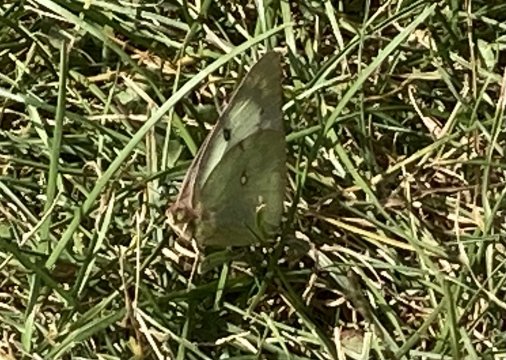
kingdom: Animalia
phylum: Arthropoda
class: Insecta
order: Lepidoptera
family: Pieridae
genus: Colias
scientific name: Colias philodice
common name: Clouded Sulphur
